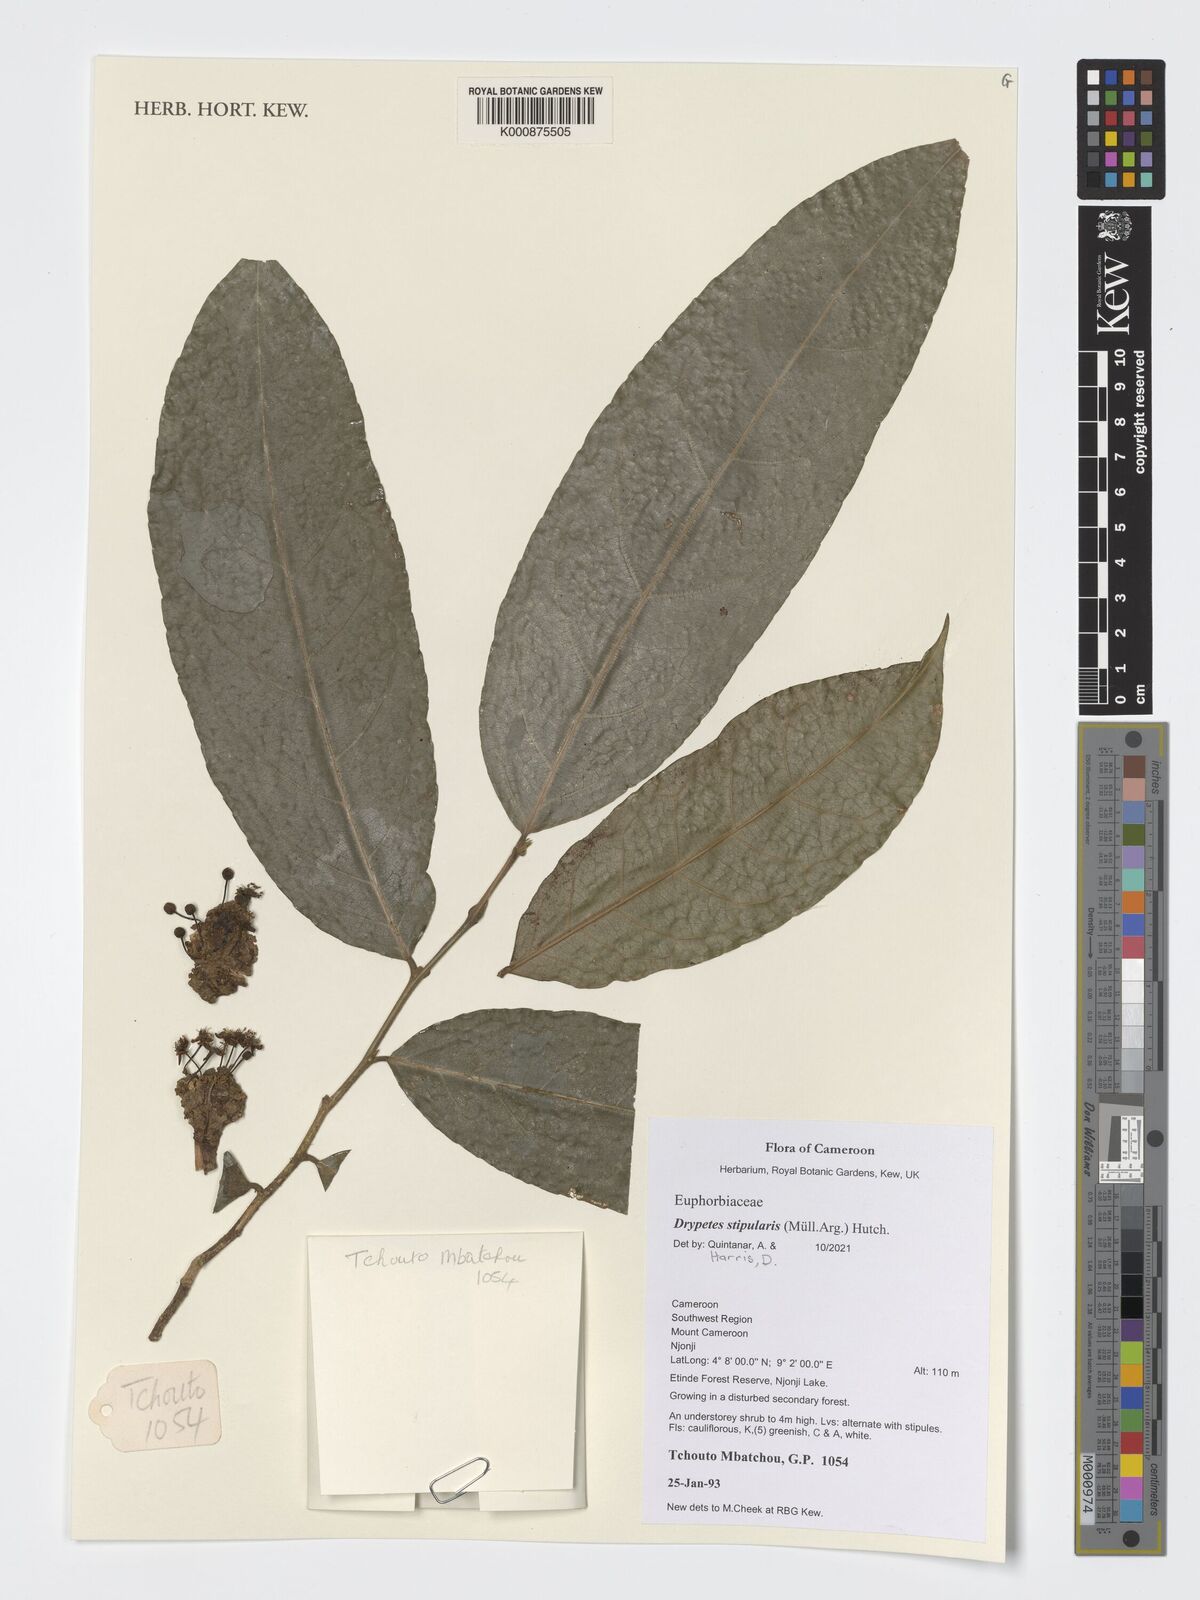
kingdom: Plantae
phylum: Tracheophyta
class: Magnoliopsida
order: Malpighiales
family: Putranjivaceae
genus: Drypetes
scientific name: Drypetes stipularis
